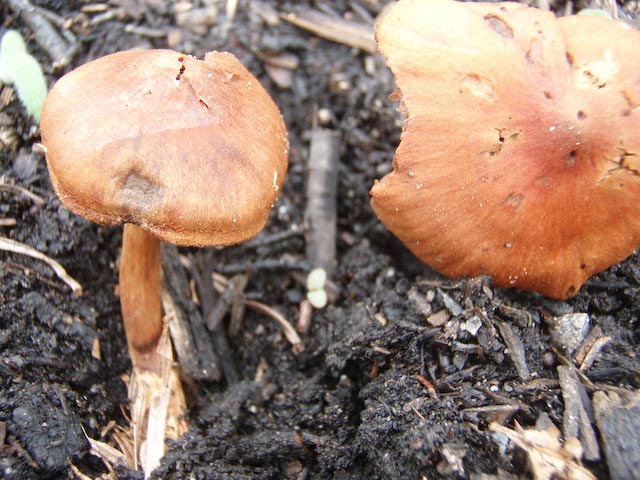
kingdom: Fungi
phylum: Basidiomycota
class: Agaricomycetes
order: Agaricales
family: Cortinariaceae
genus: Cortinarius
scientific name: Cortinarius cinnabarinus
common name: cinnober-slørhat
